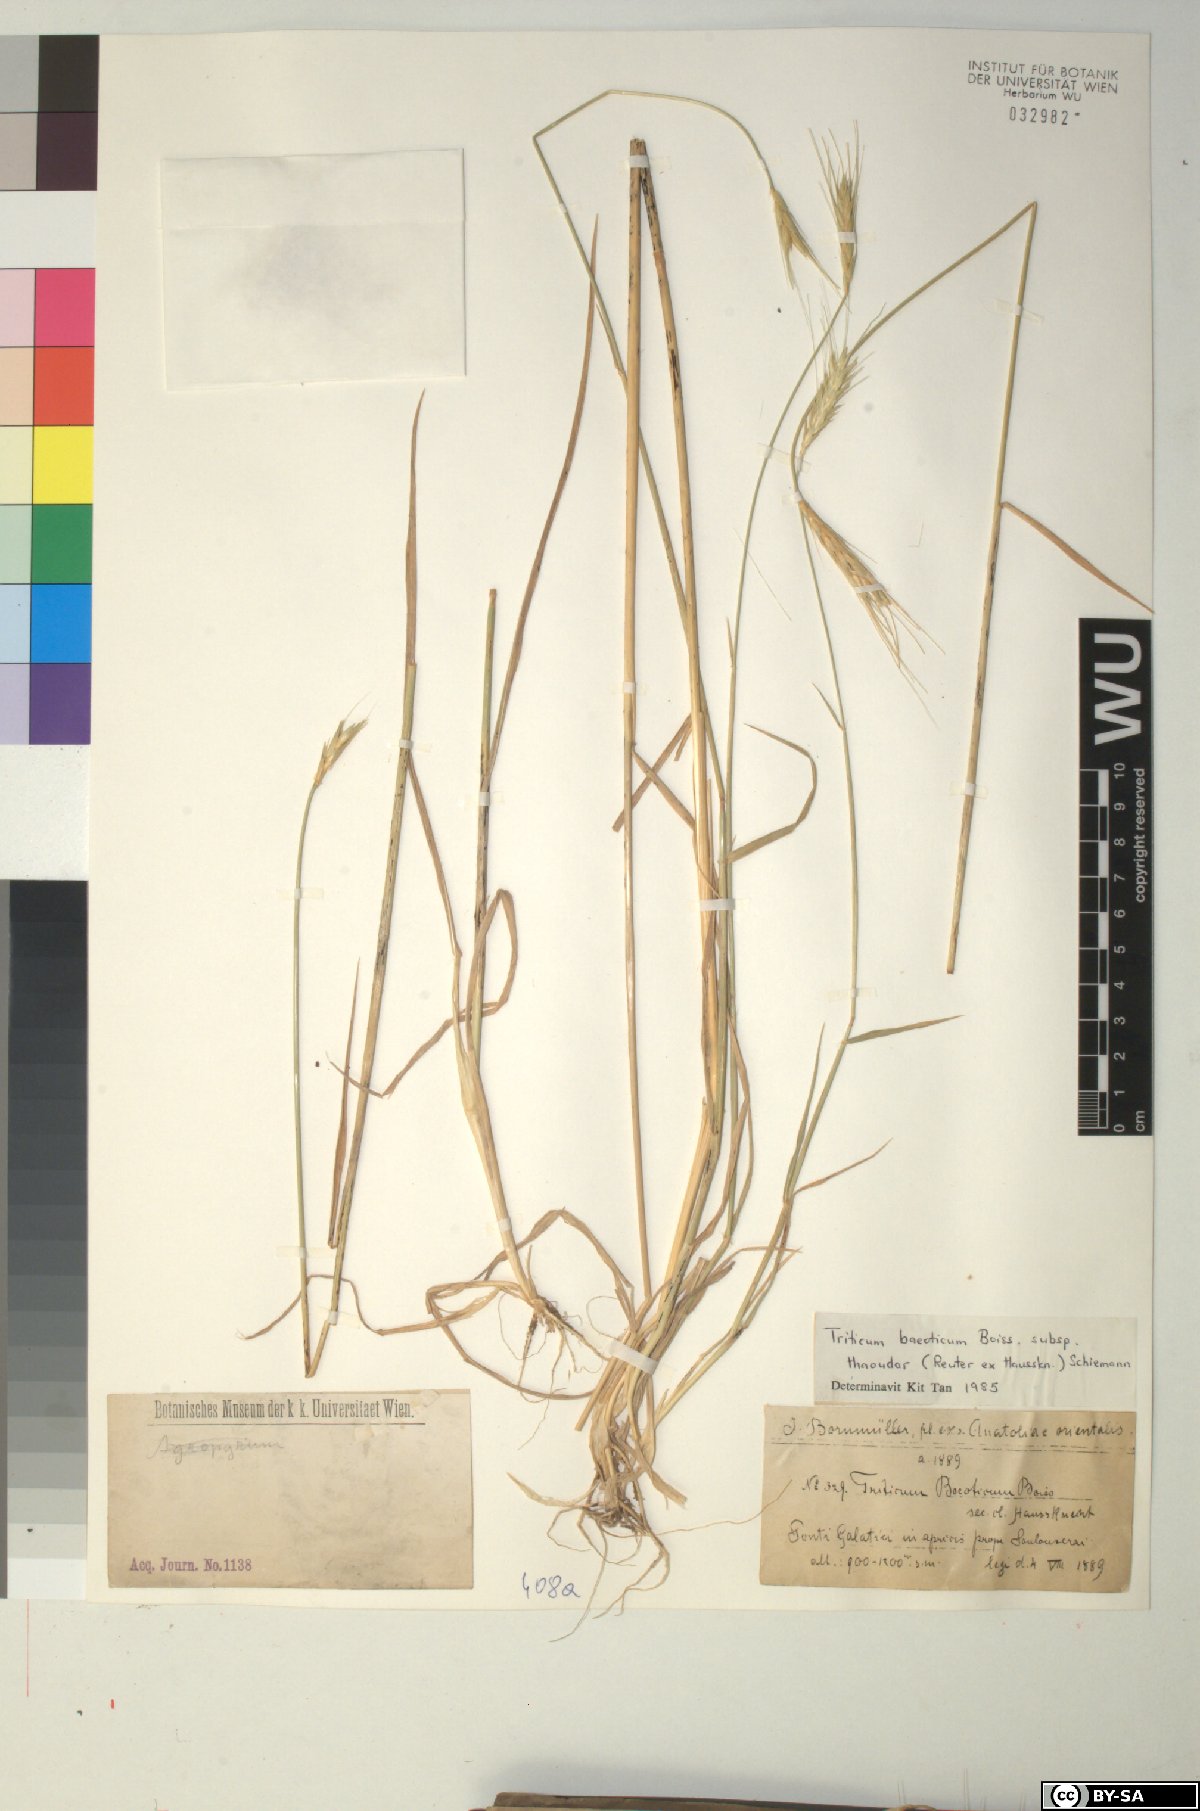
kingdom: Plantae
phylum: Tracheophyta
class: Liliopsida
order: Poales
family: Poaceae
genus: Triticum
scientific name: Triticum monococcum
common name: Einkorn
